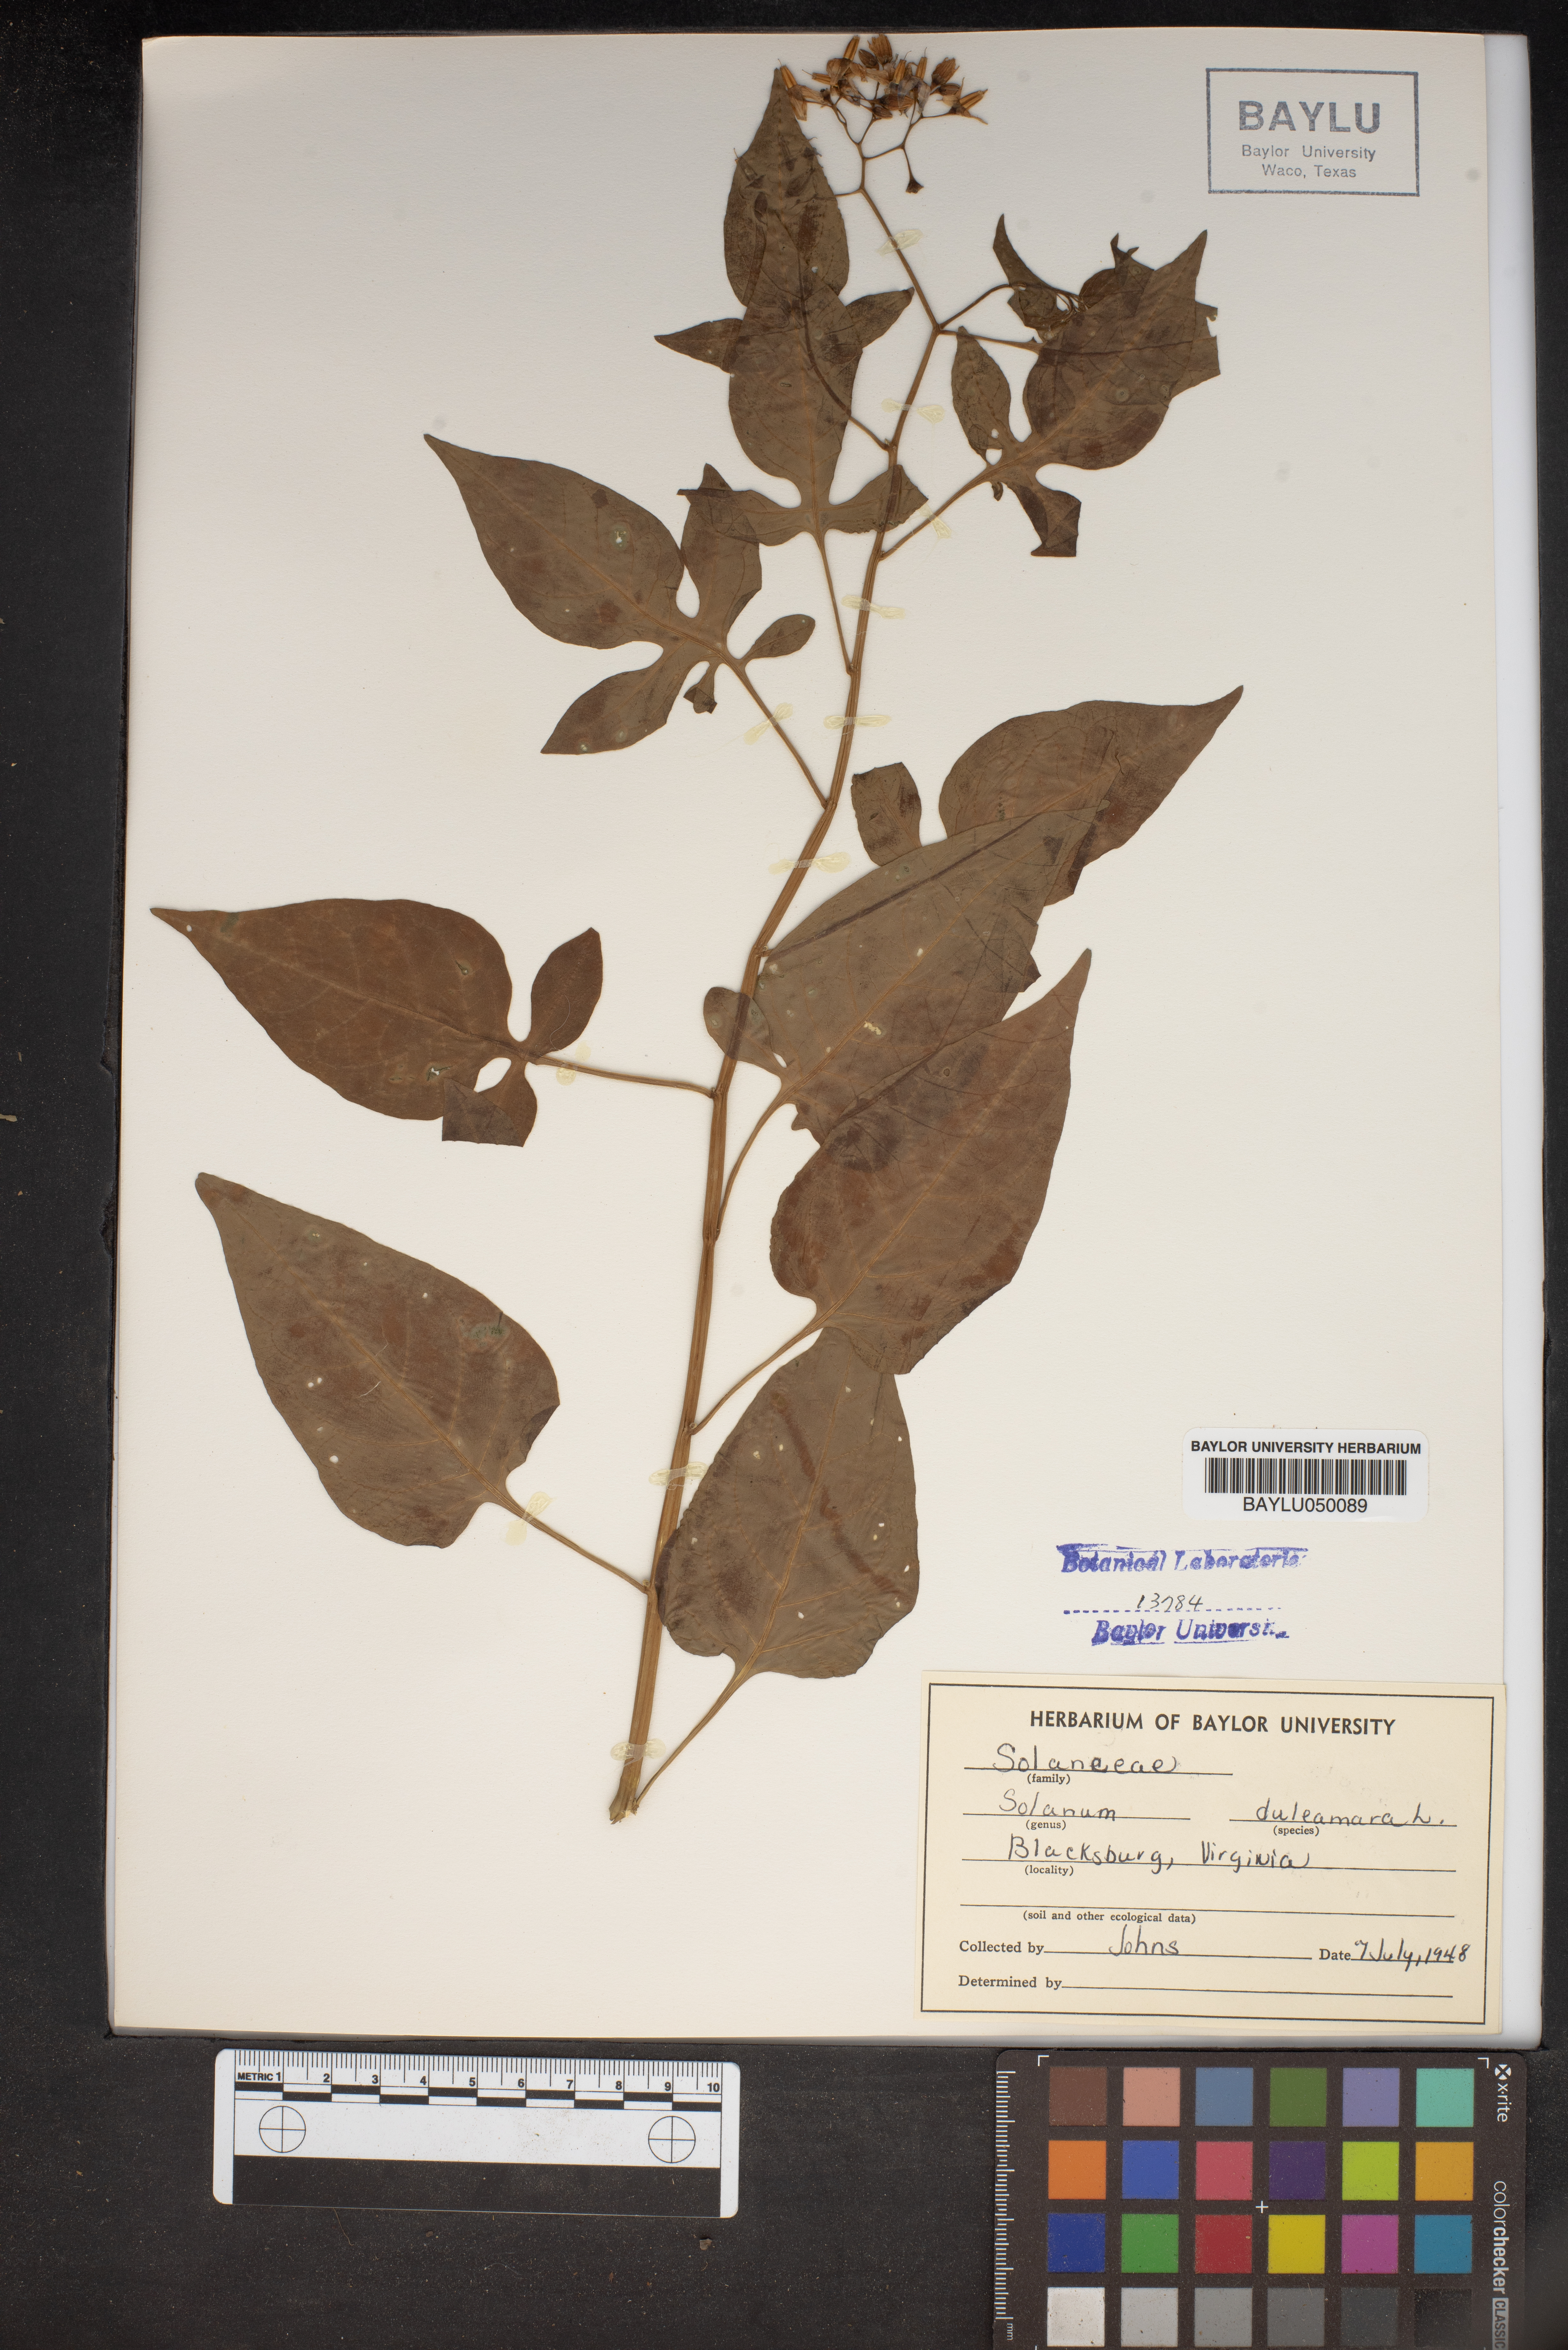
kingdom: Plantae
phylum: Tracheophyta
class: Magnoliopsida
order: Solanales
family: Solanaceae
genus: Solanum
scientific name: Solanum dulcamara
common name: Climbing nightshade
